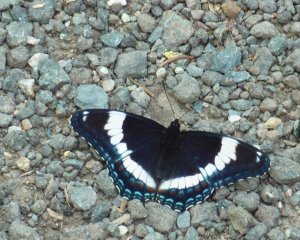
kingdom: Animalia
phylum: Arthropoda
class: Insecta
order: Lepidoptera
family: Nymphalidae
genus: Limenitis
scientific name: Limenitis arthemis
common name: Red-spotted Admiral
